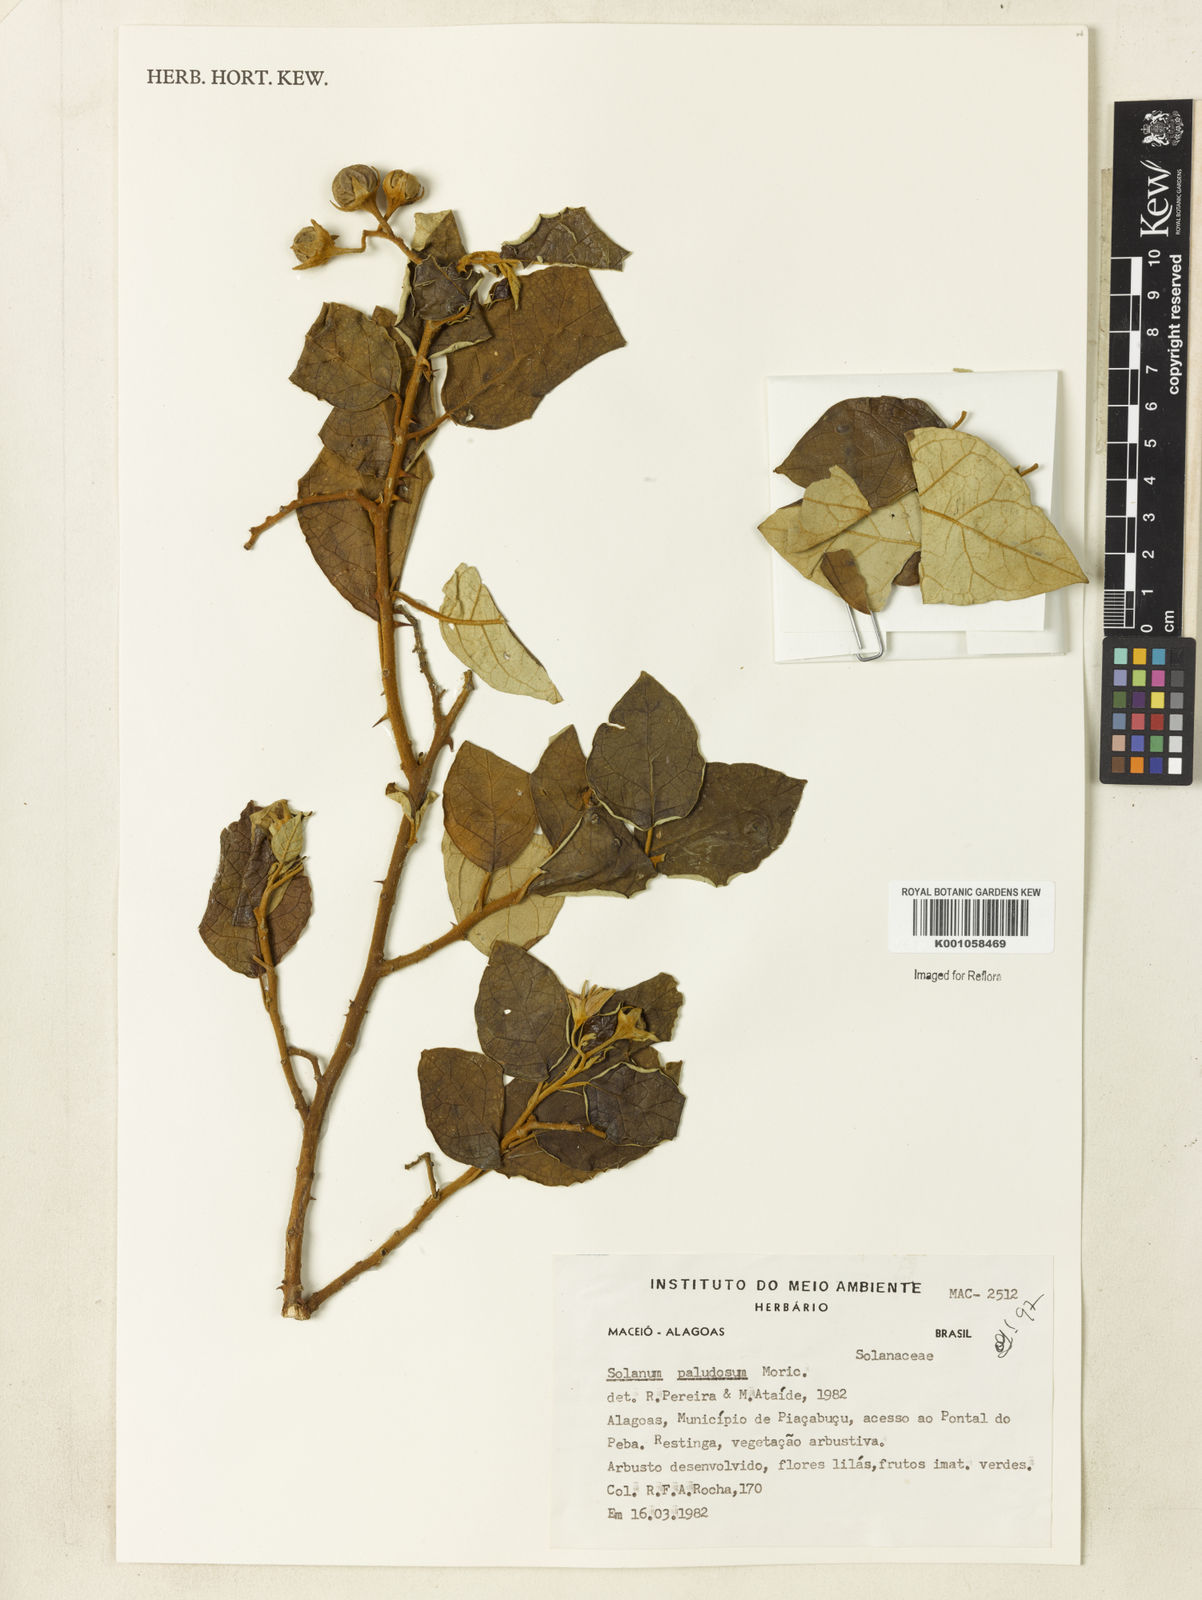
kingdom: Plantae
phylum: Tracheophyta
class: Magnoliopsida
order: Solanales
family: Solanaceae
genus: Solanum
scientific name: Solanum paludosum
